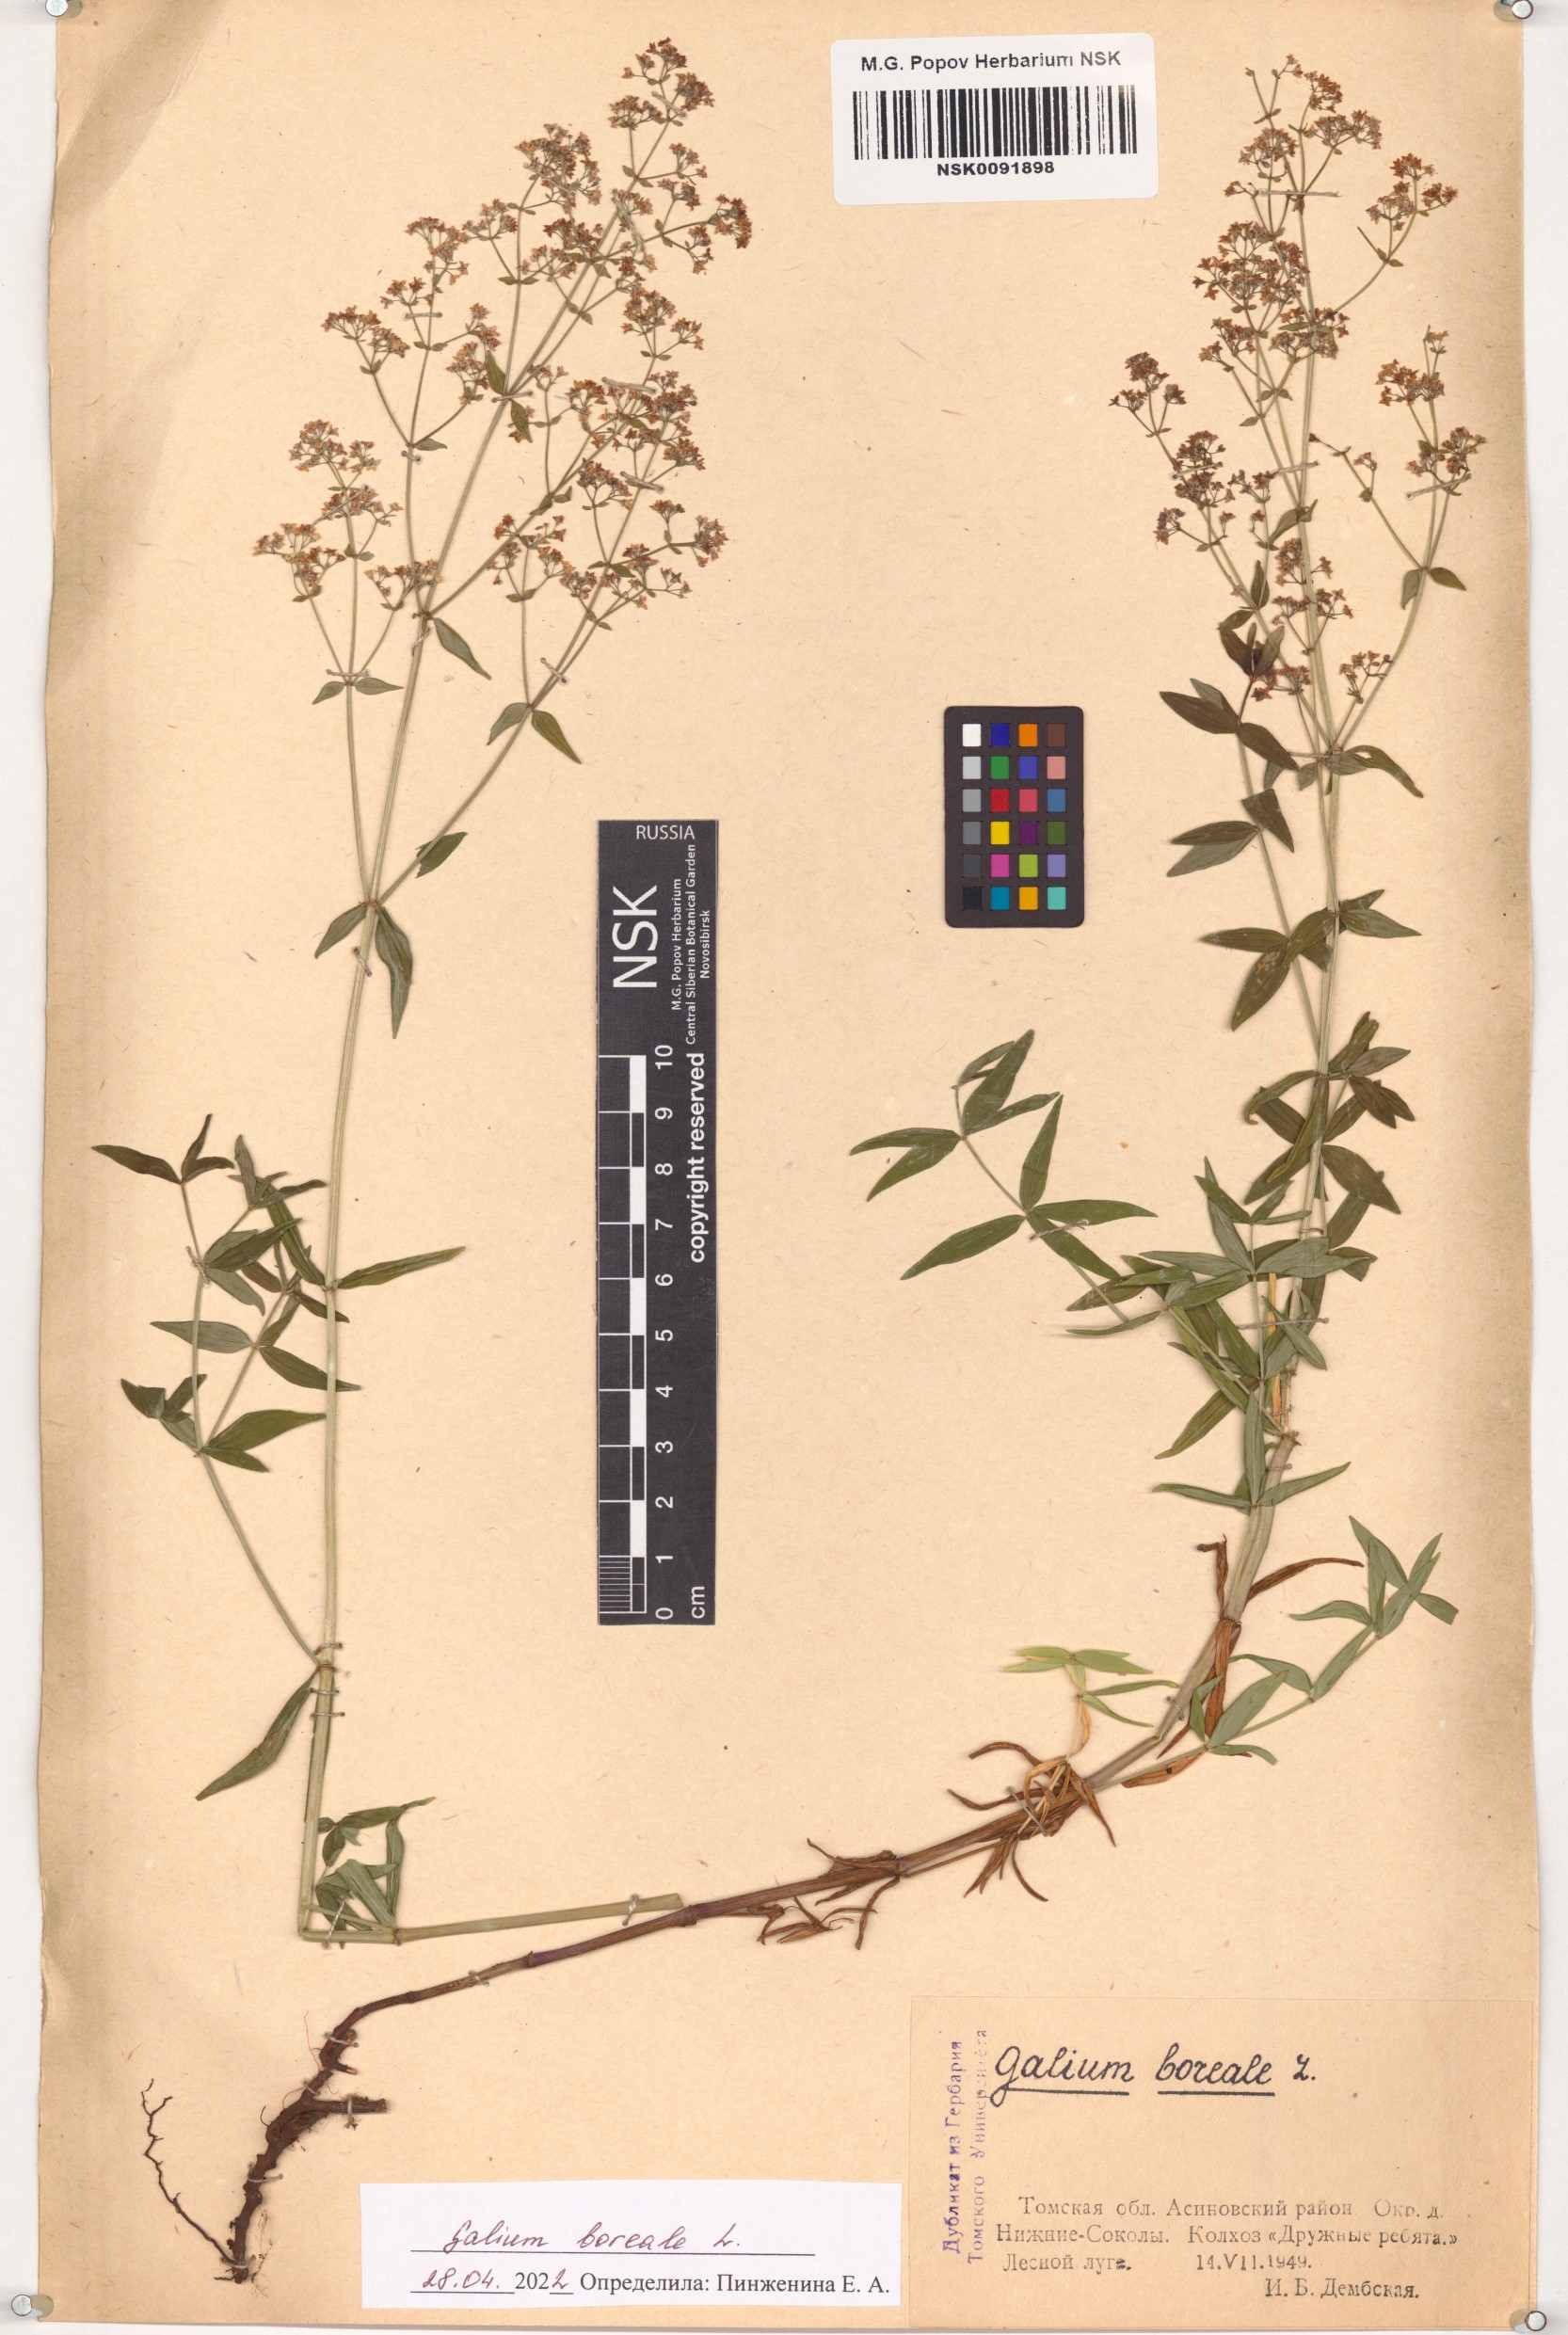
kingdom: Plantae
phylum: Tracheophyta
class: Magnoliopsida
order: Gentianales
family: Rubiaceae
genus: Galium
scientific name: Galium boreale
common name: Northern bedstraw
